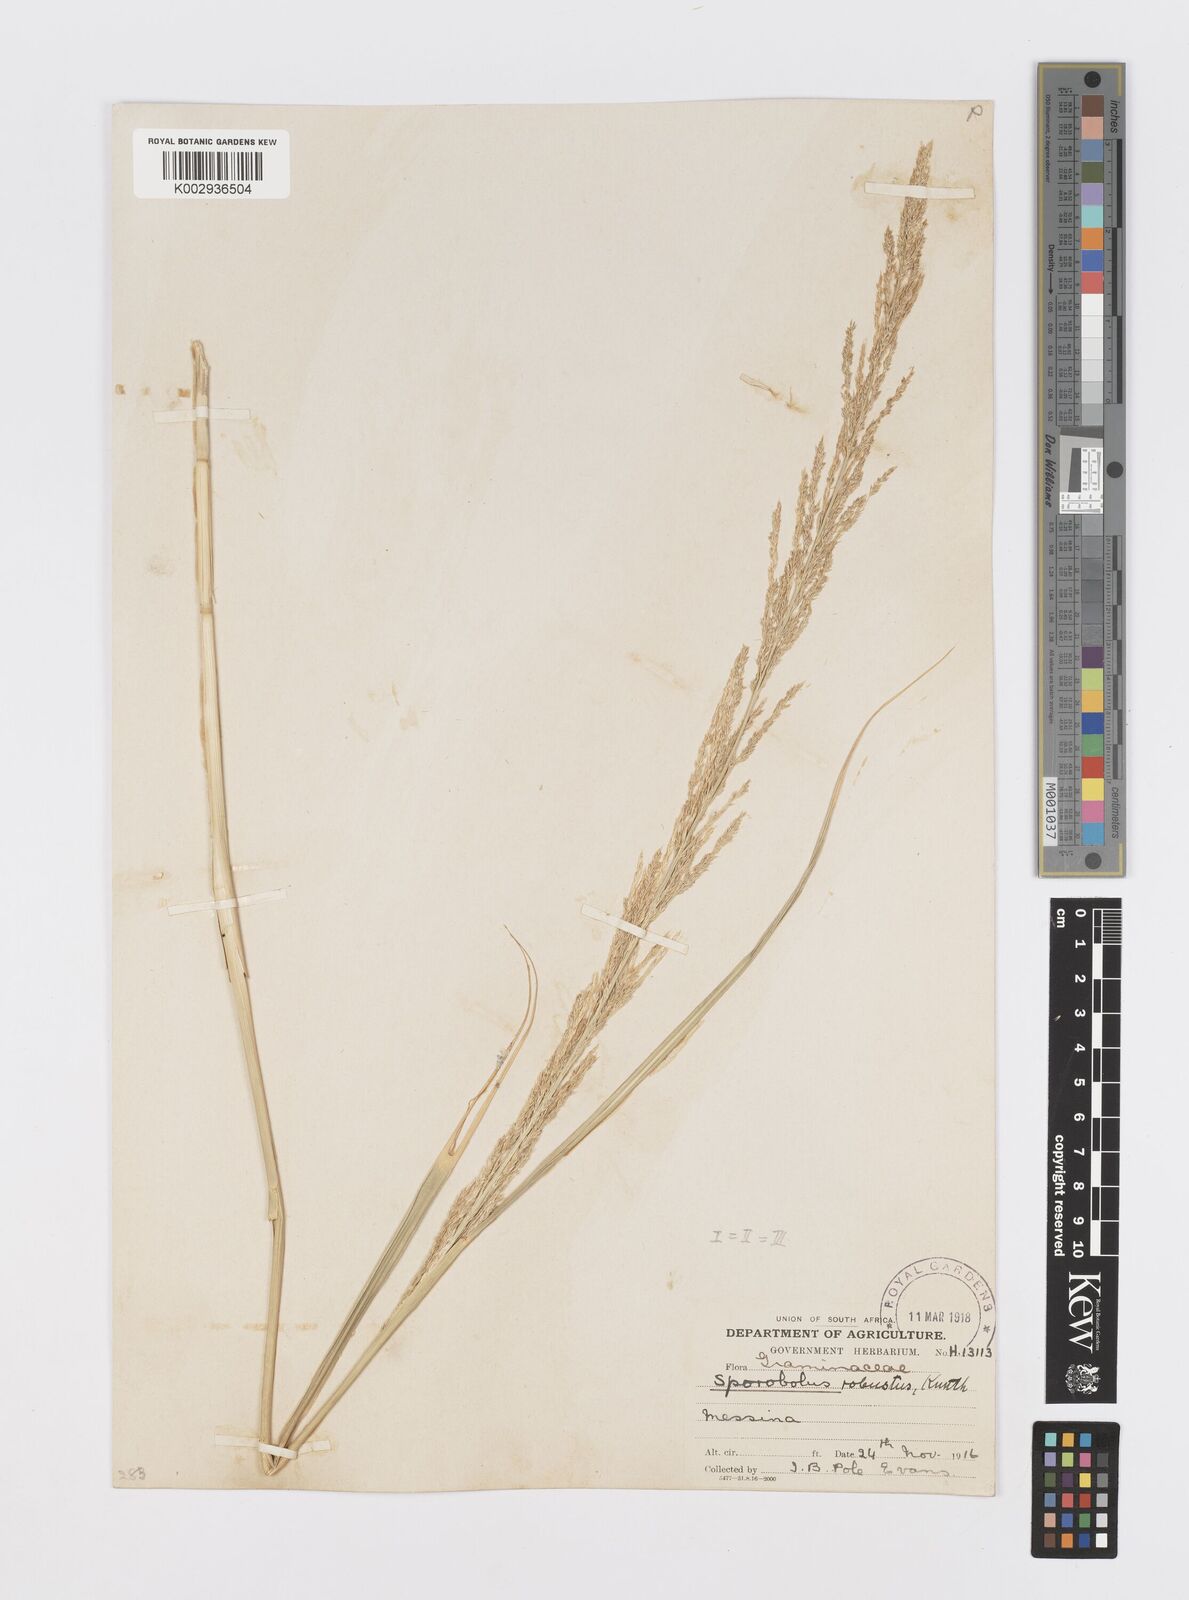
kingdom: Plantae
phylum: Tracheophyta
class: Liliopsida
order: Poales
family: Poaceae
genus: Sporobolus
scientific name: Sporobolus consimilis
